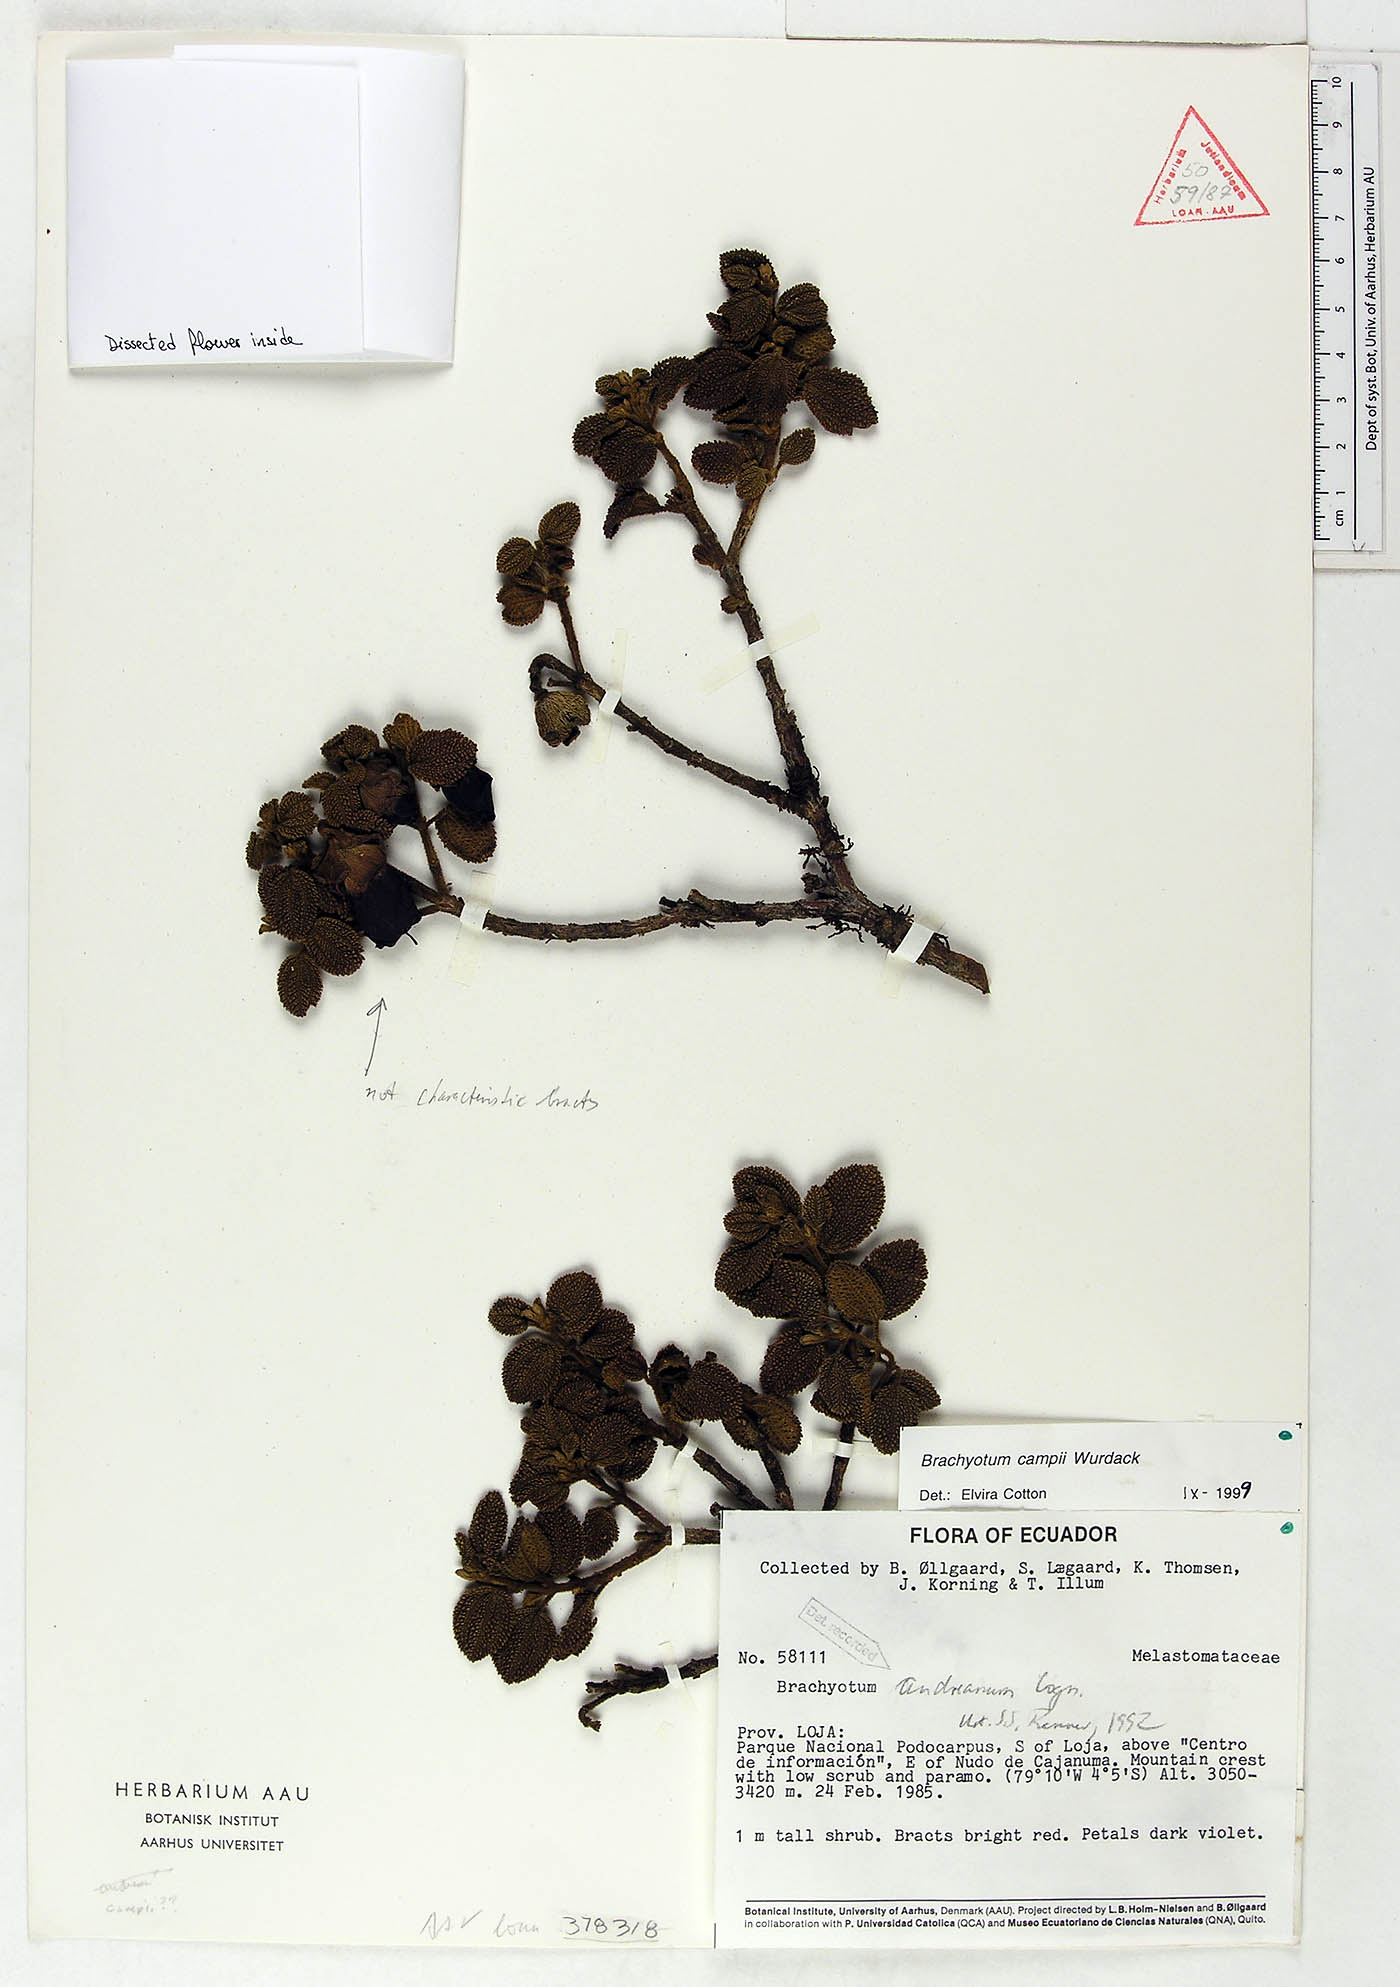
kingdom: Plantae
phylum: Tracheophyta
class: Magnoliopsida
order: Myrtales
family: Melastomataceae
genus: Brachyotum
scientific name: Brachyotum andreanum
